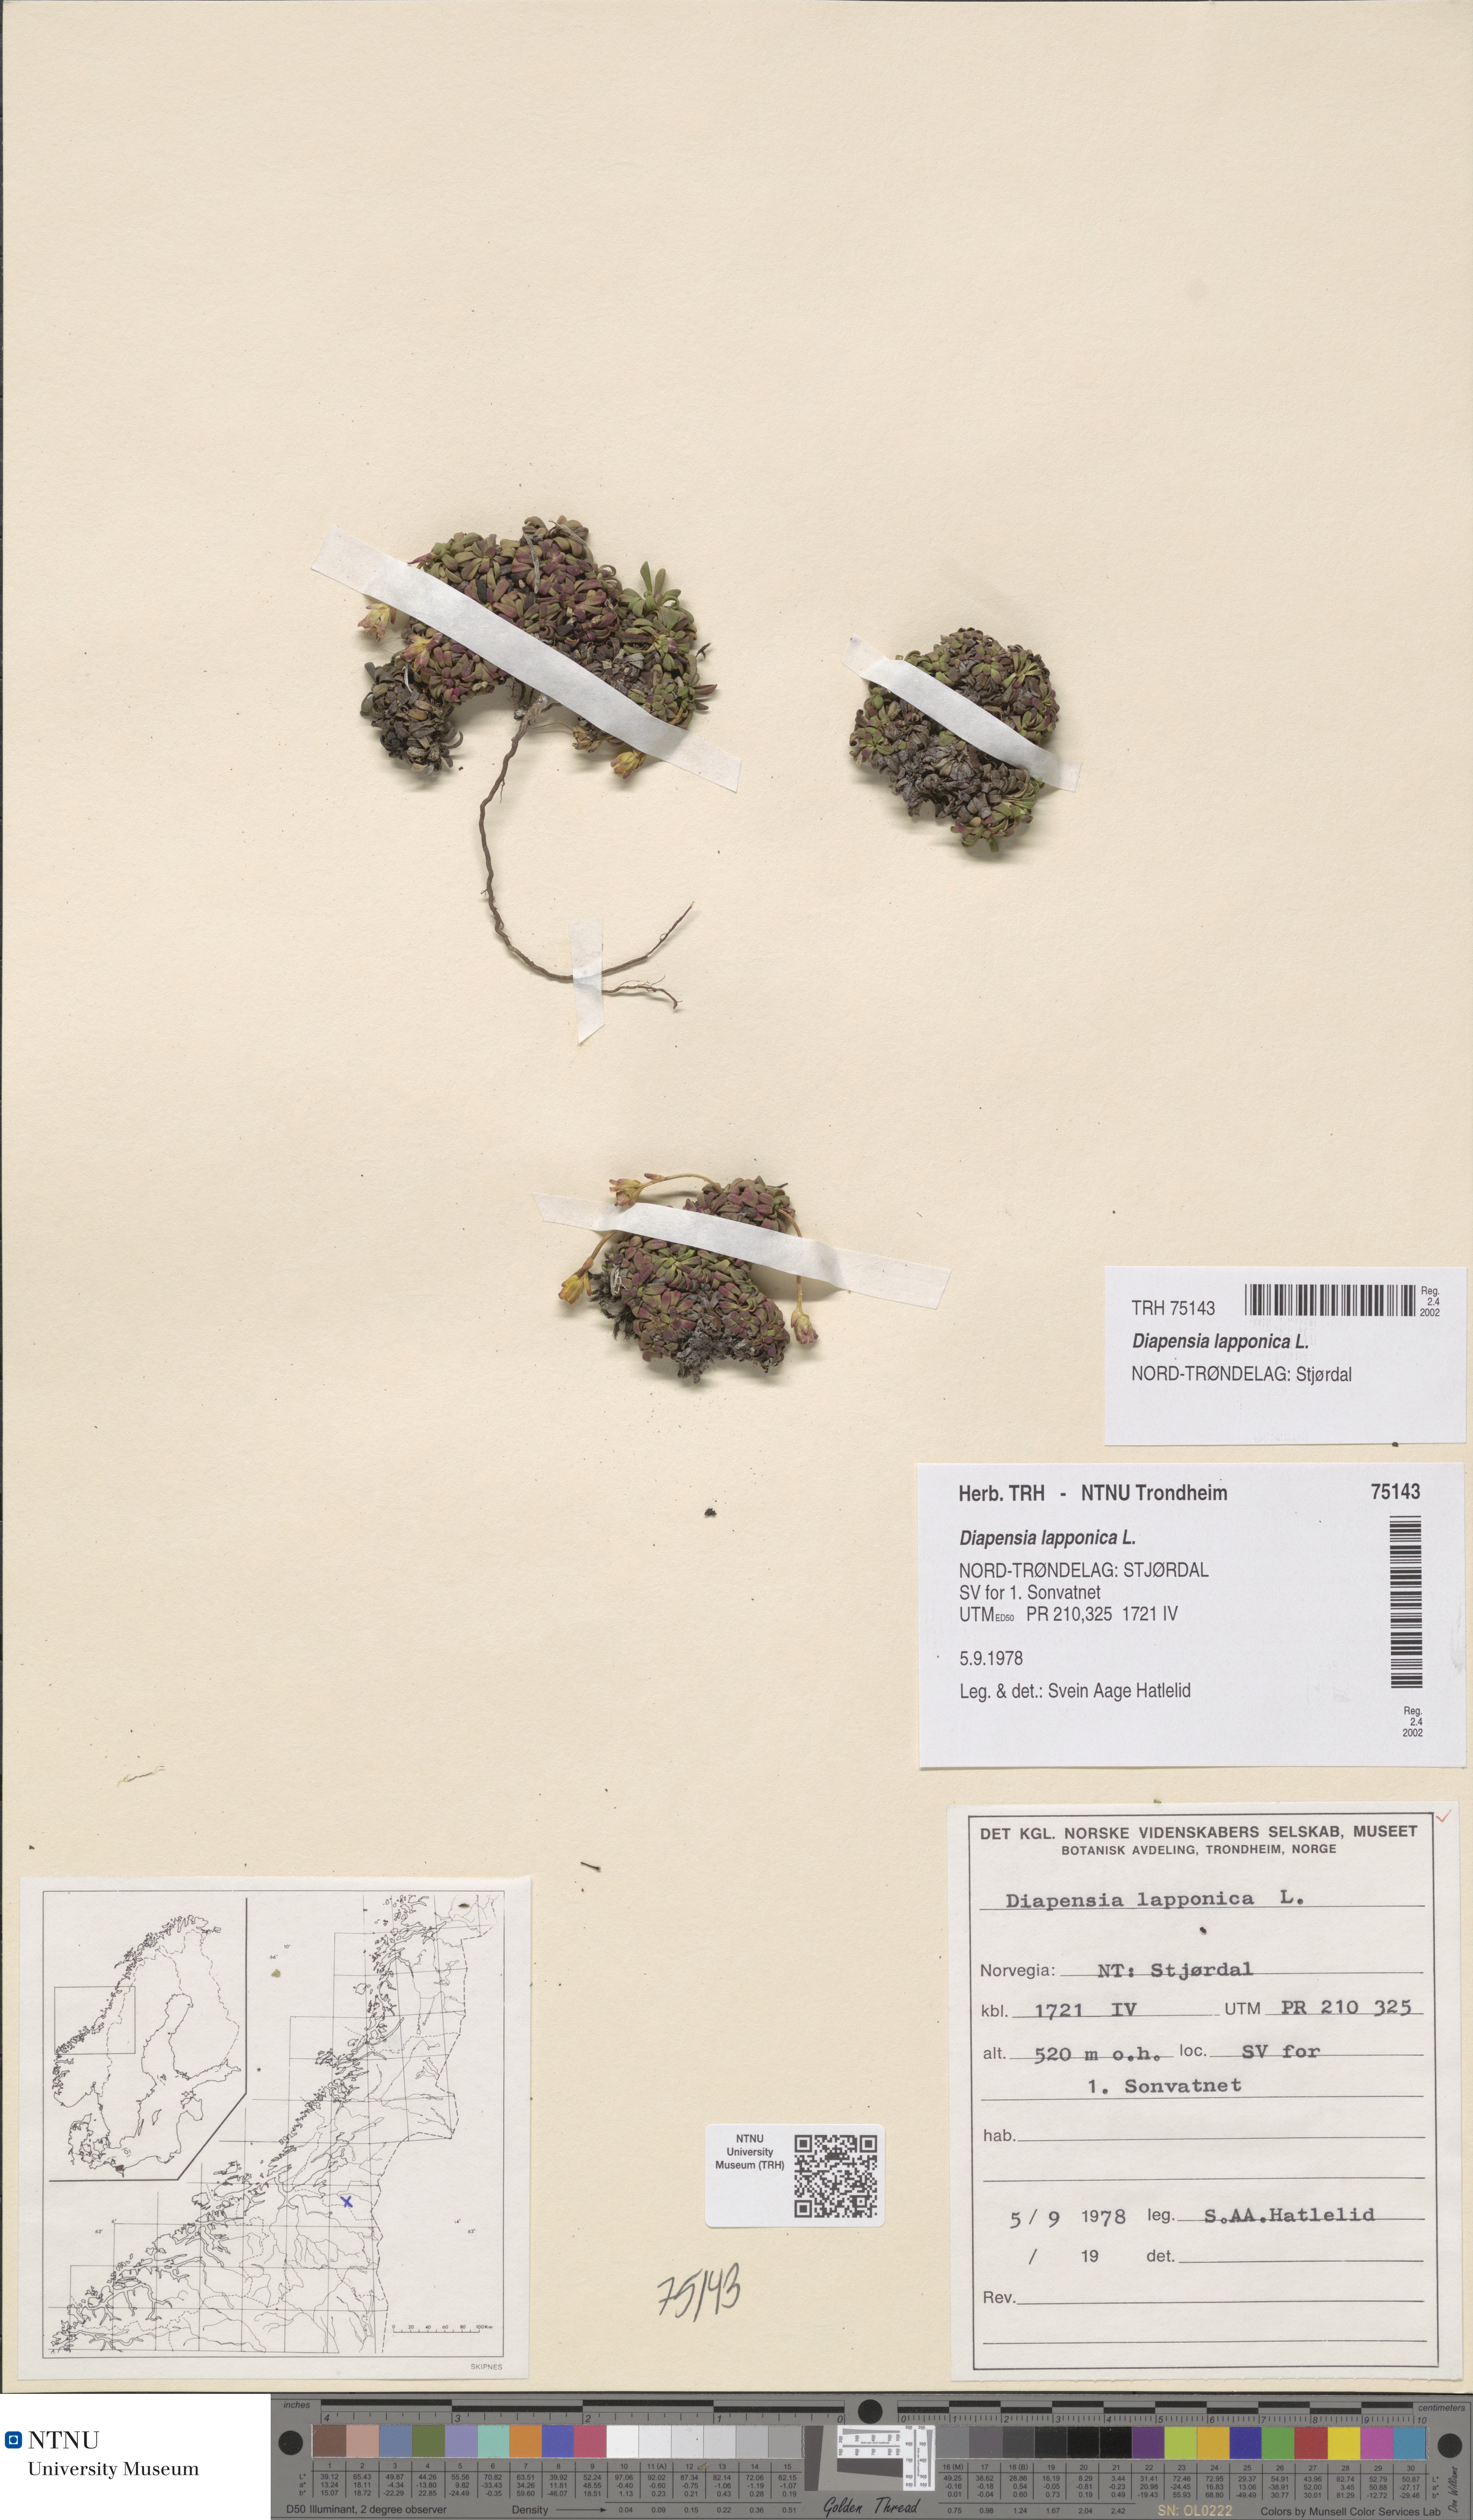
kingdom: Plantae
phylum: Tracheophyta
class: Magnoliopsida
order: Ericales
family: Diapensiaceae
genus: Diapensia
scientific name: Diapensia lapponica
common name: Diapensia
